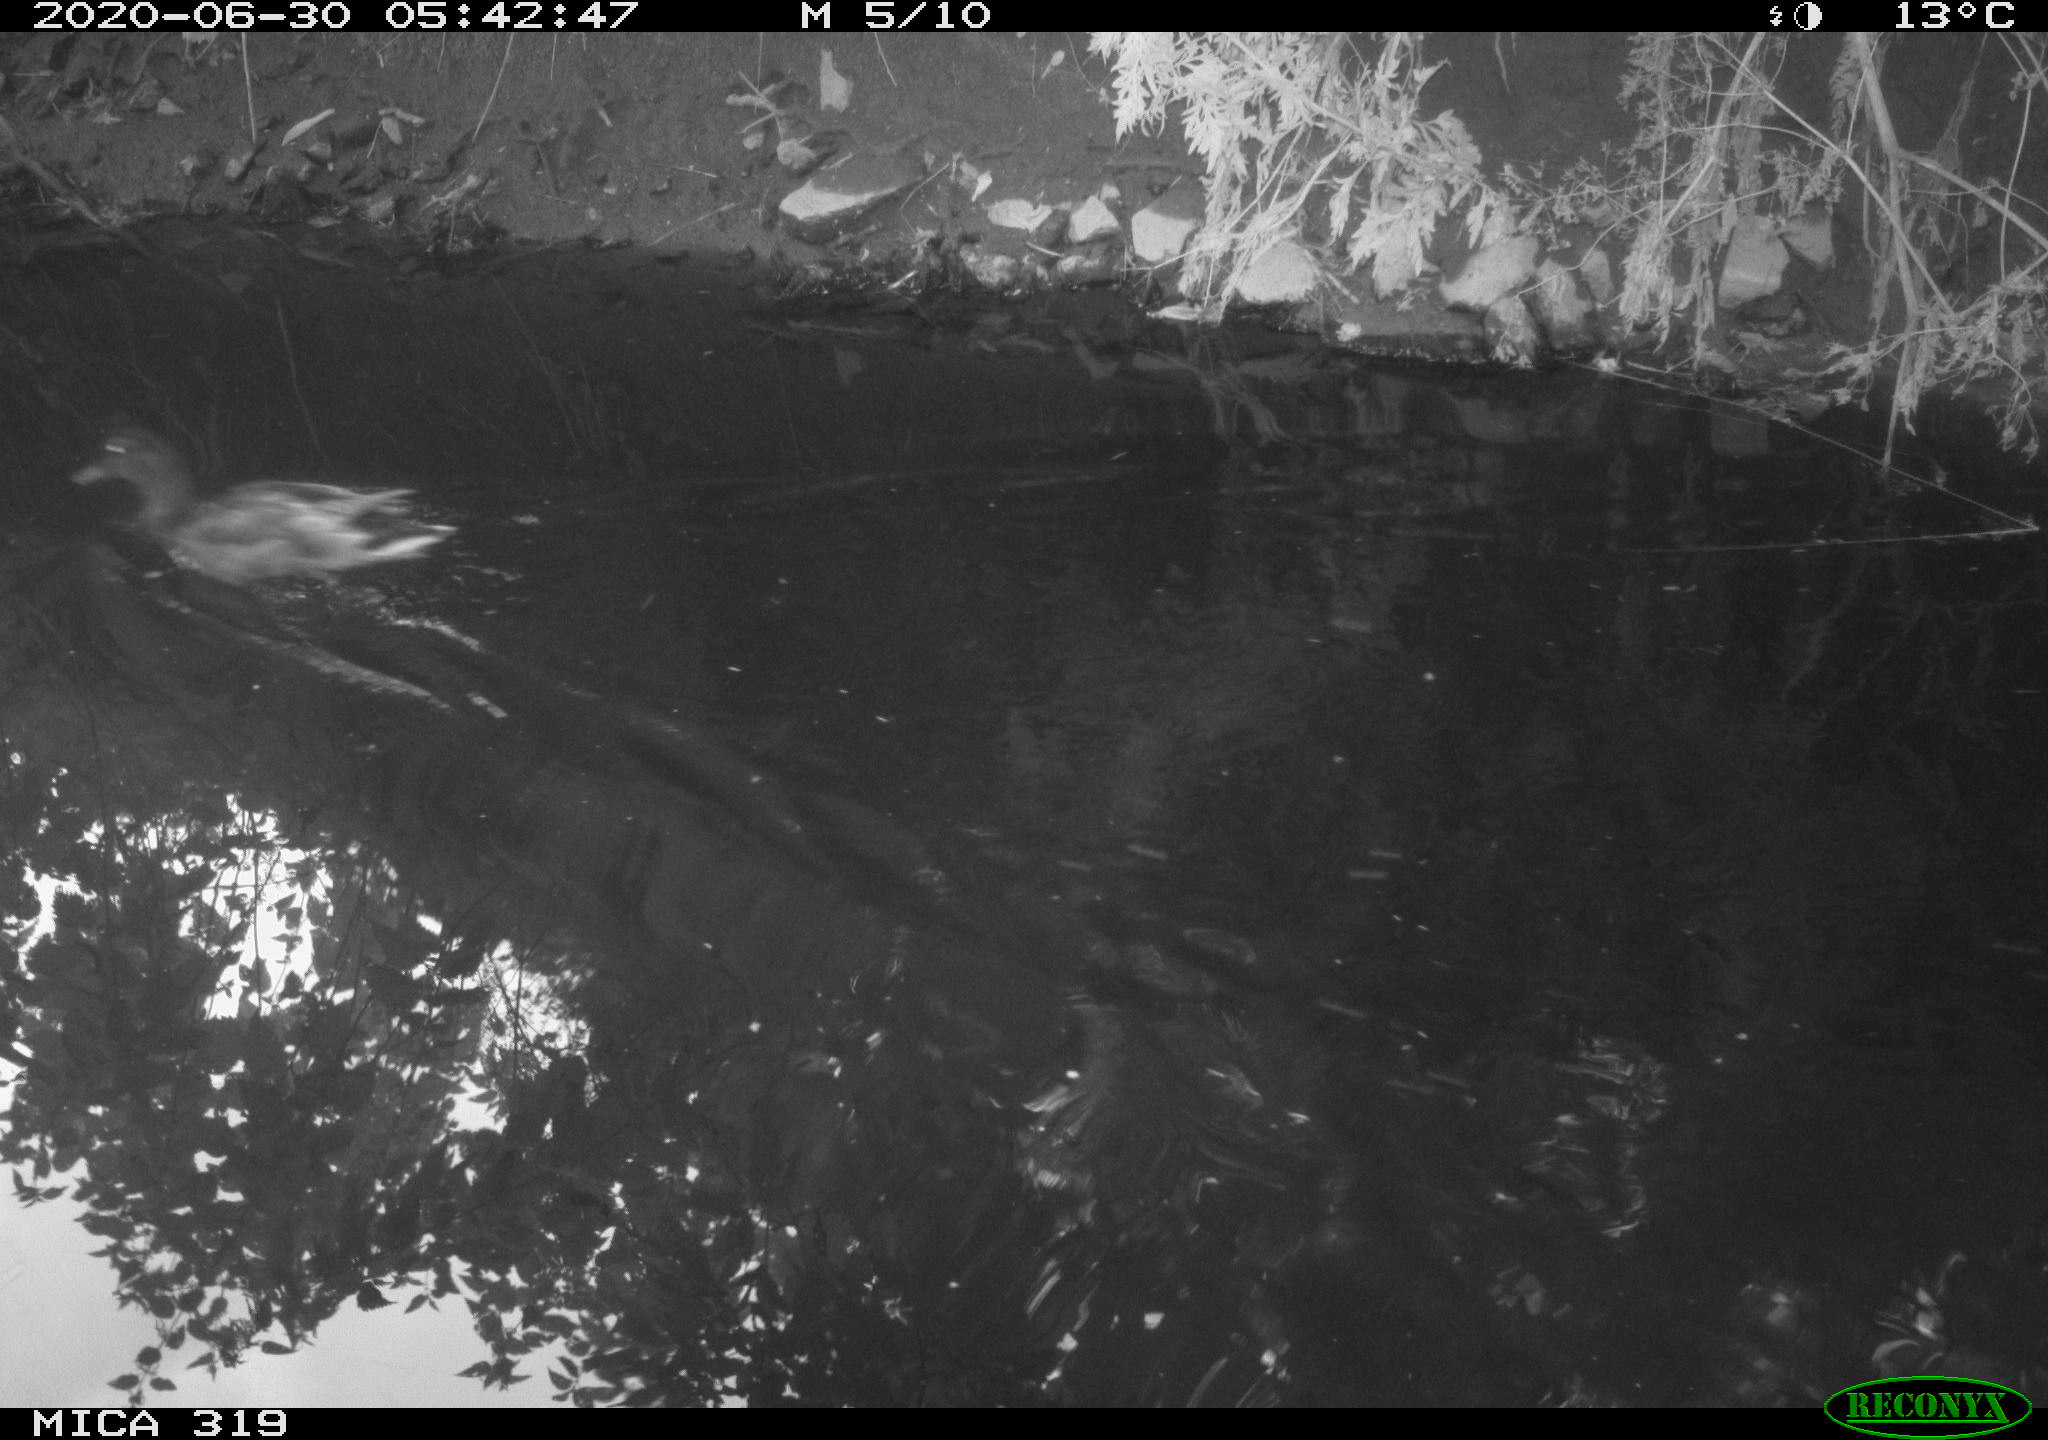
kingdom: Animalia
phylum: Chordata
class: Aves
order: Anseriformes
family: Anatidae
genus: Anas
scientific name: Anas platyrhynchos
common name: Mallard
